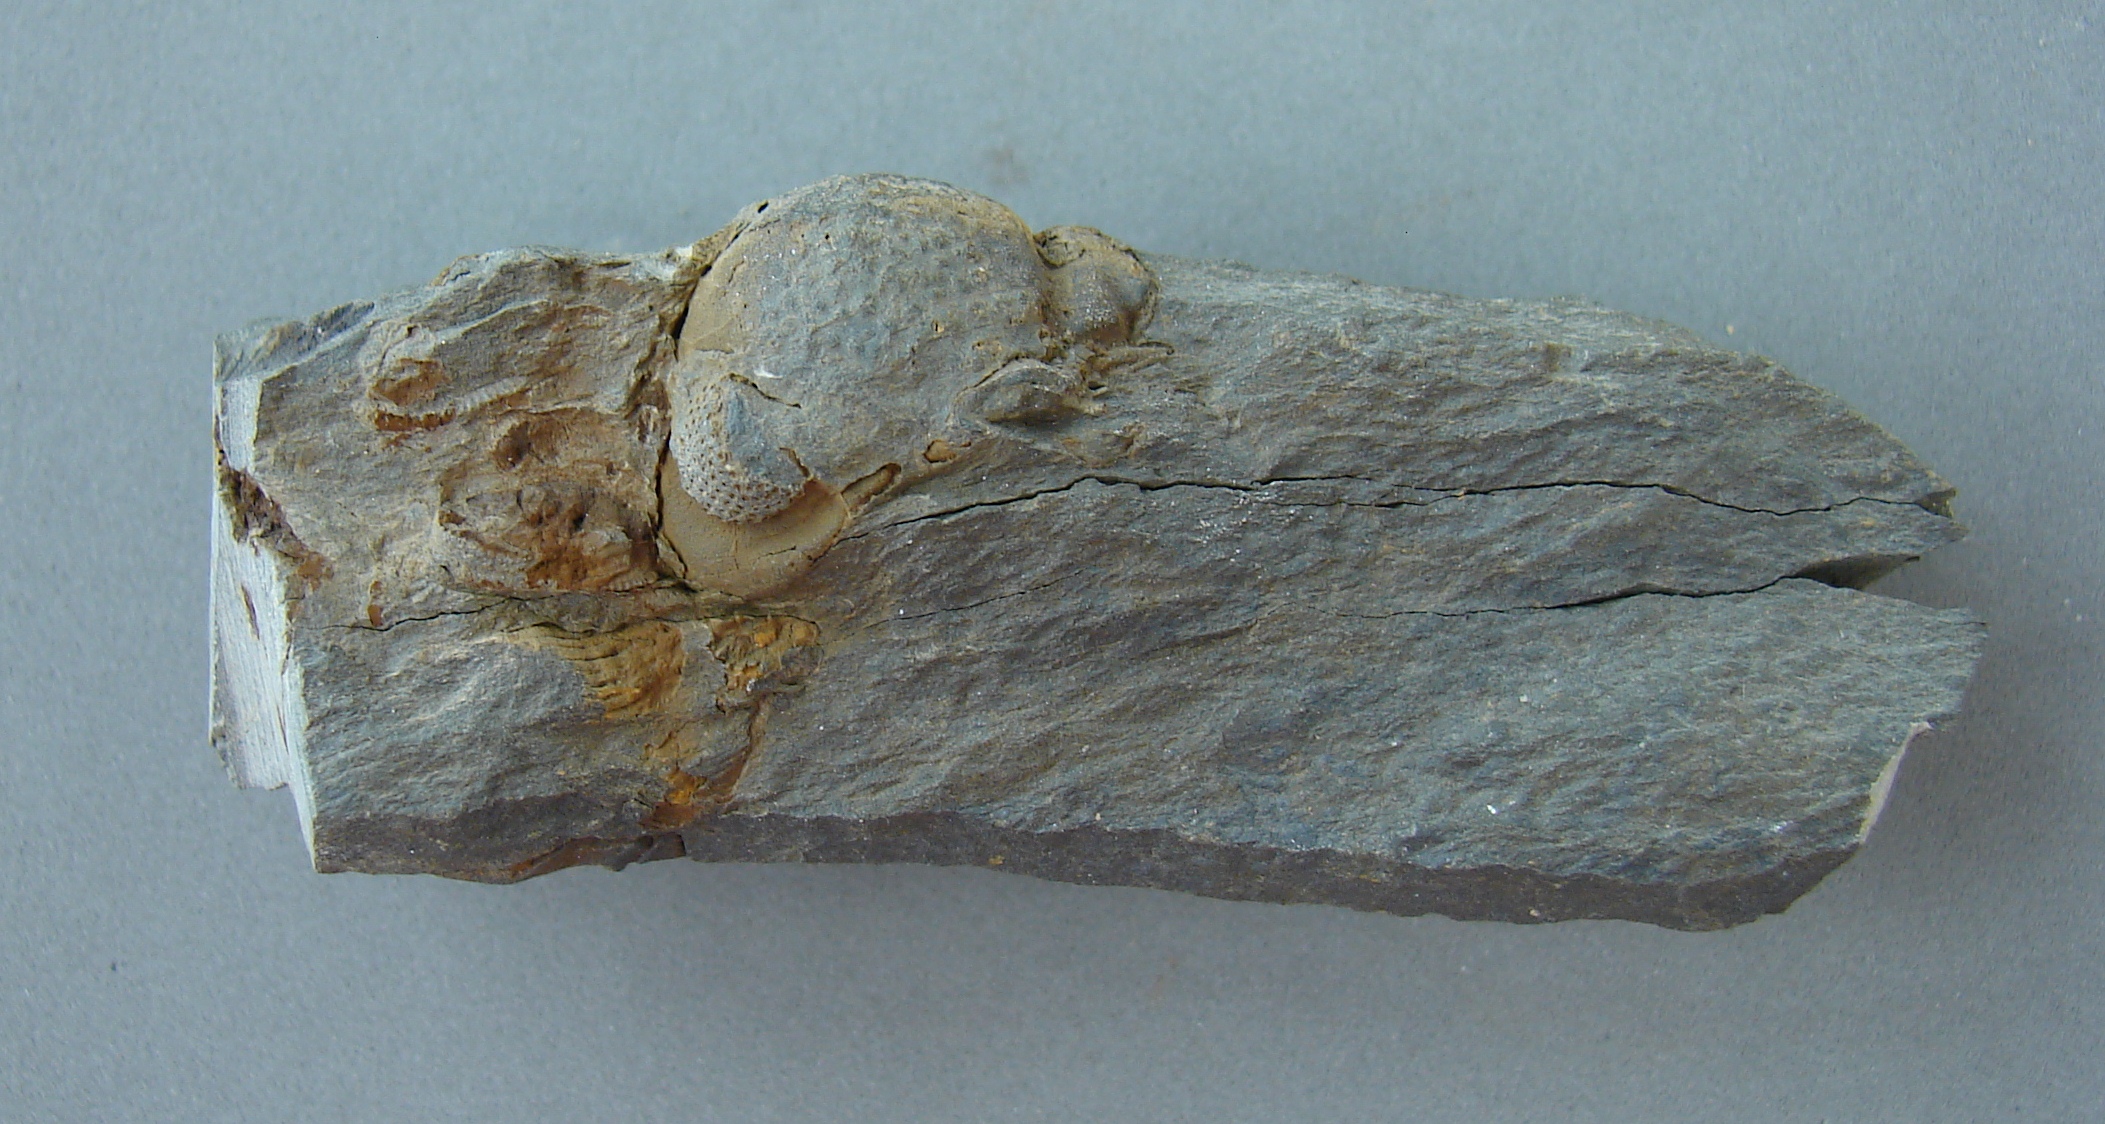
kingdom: Animalia
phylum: Arthropoda
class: Trilobita
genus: Arduennops
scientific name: Arduennops
